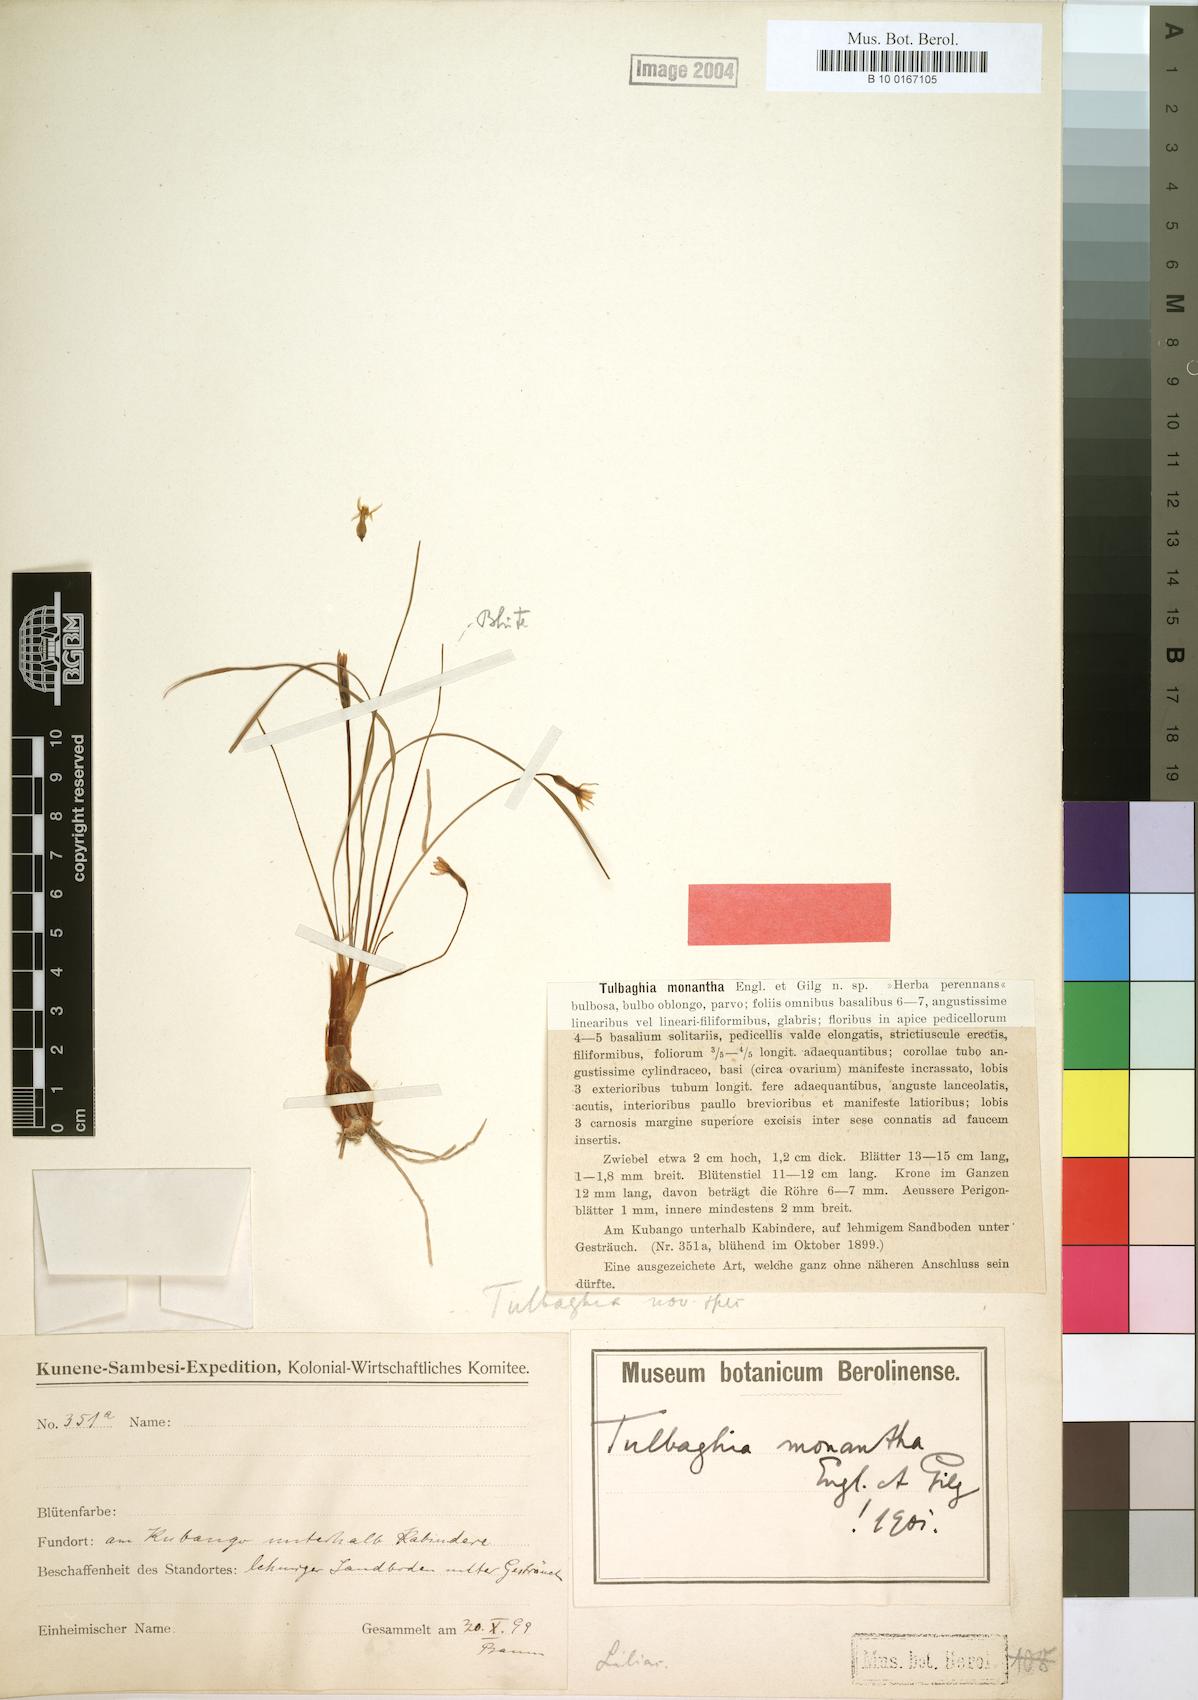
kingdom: Plantae
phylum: Tracheophyta
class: Liliopsida
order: Asparagales
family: Amaryllidaceae
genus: Tulbaghia
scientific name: Tulbaghia aequinoctialis
